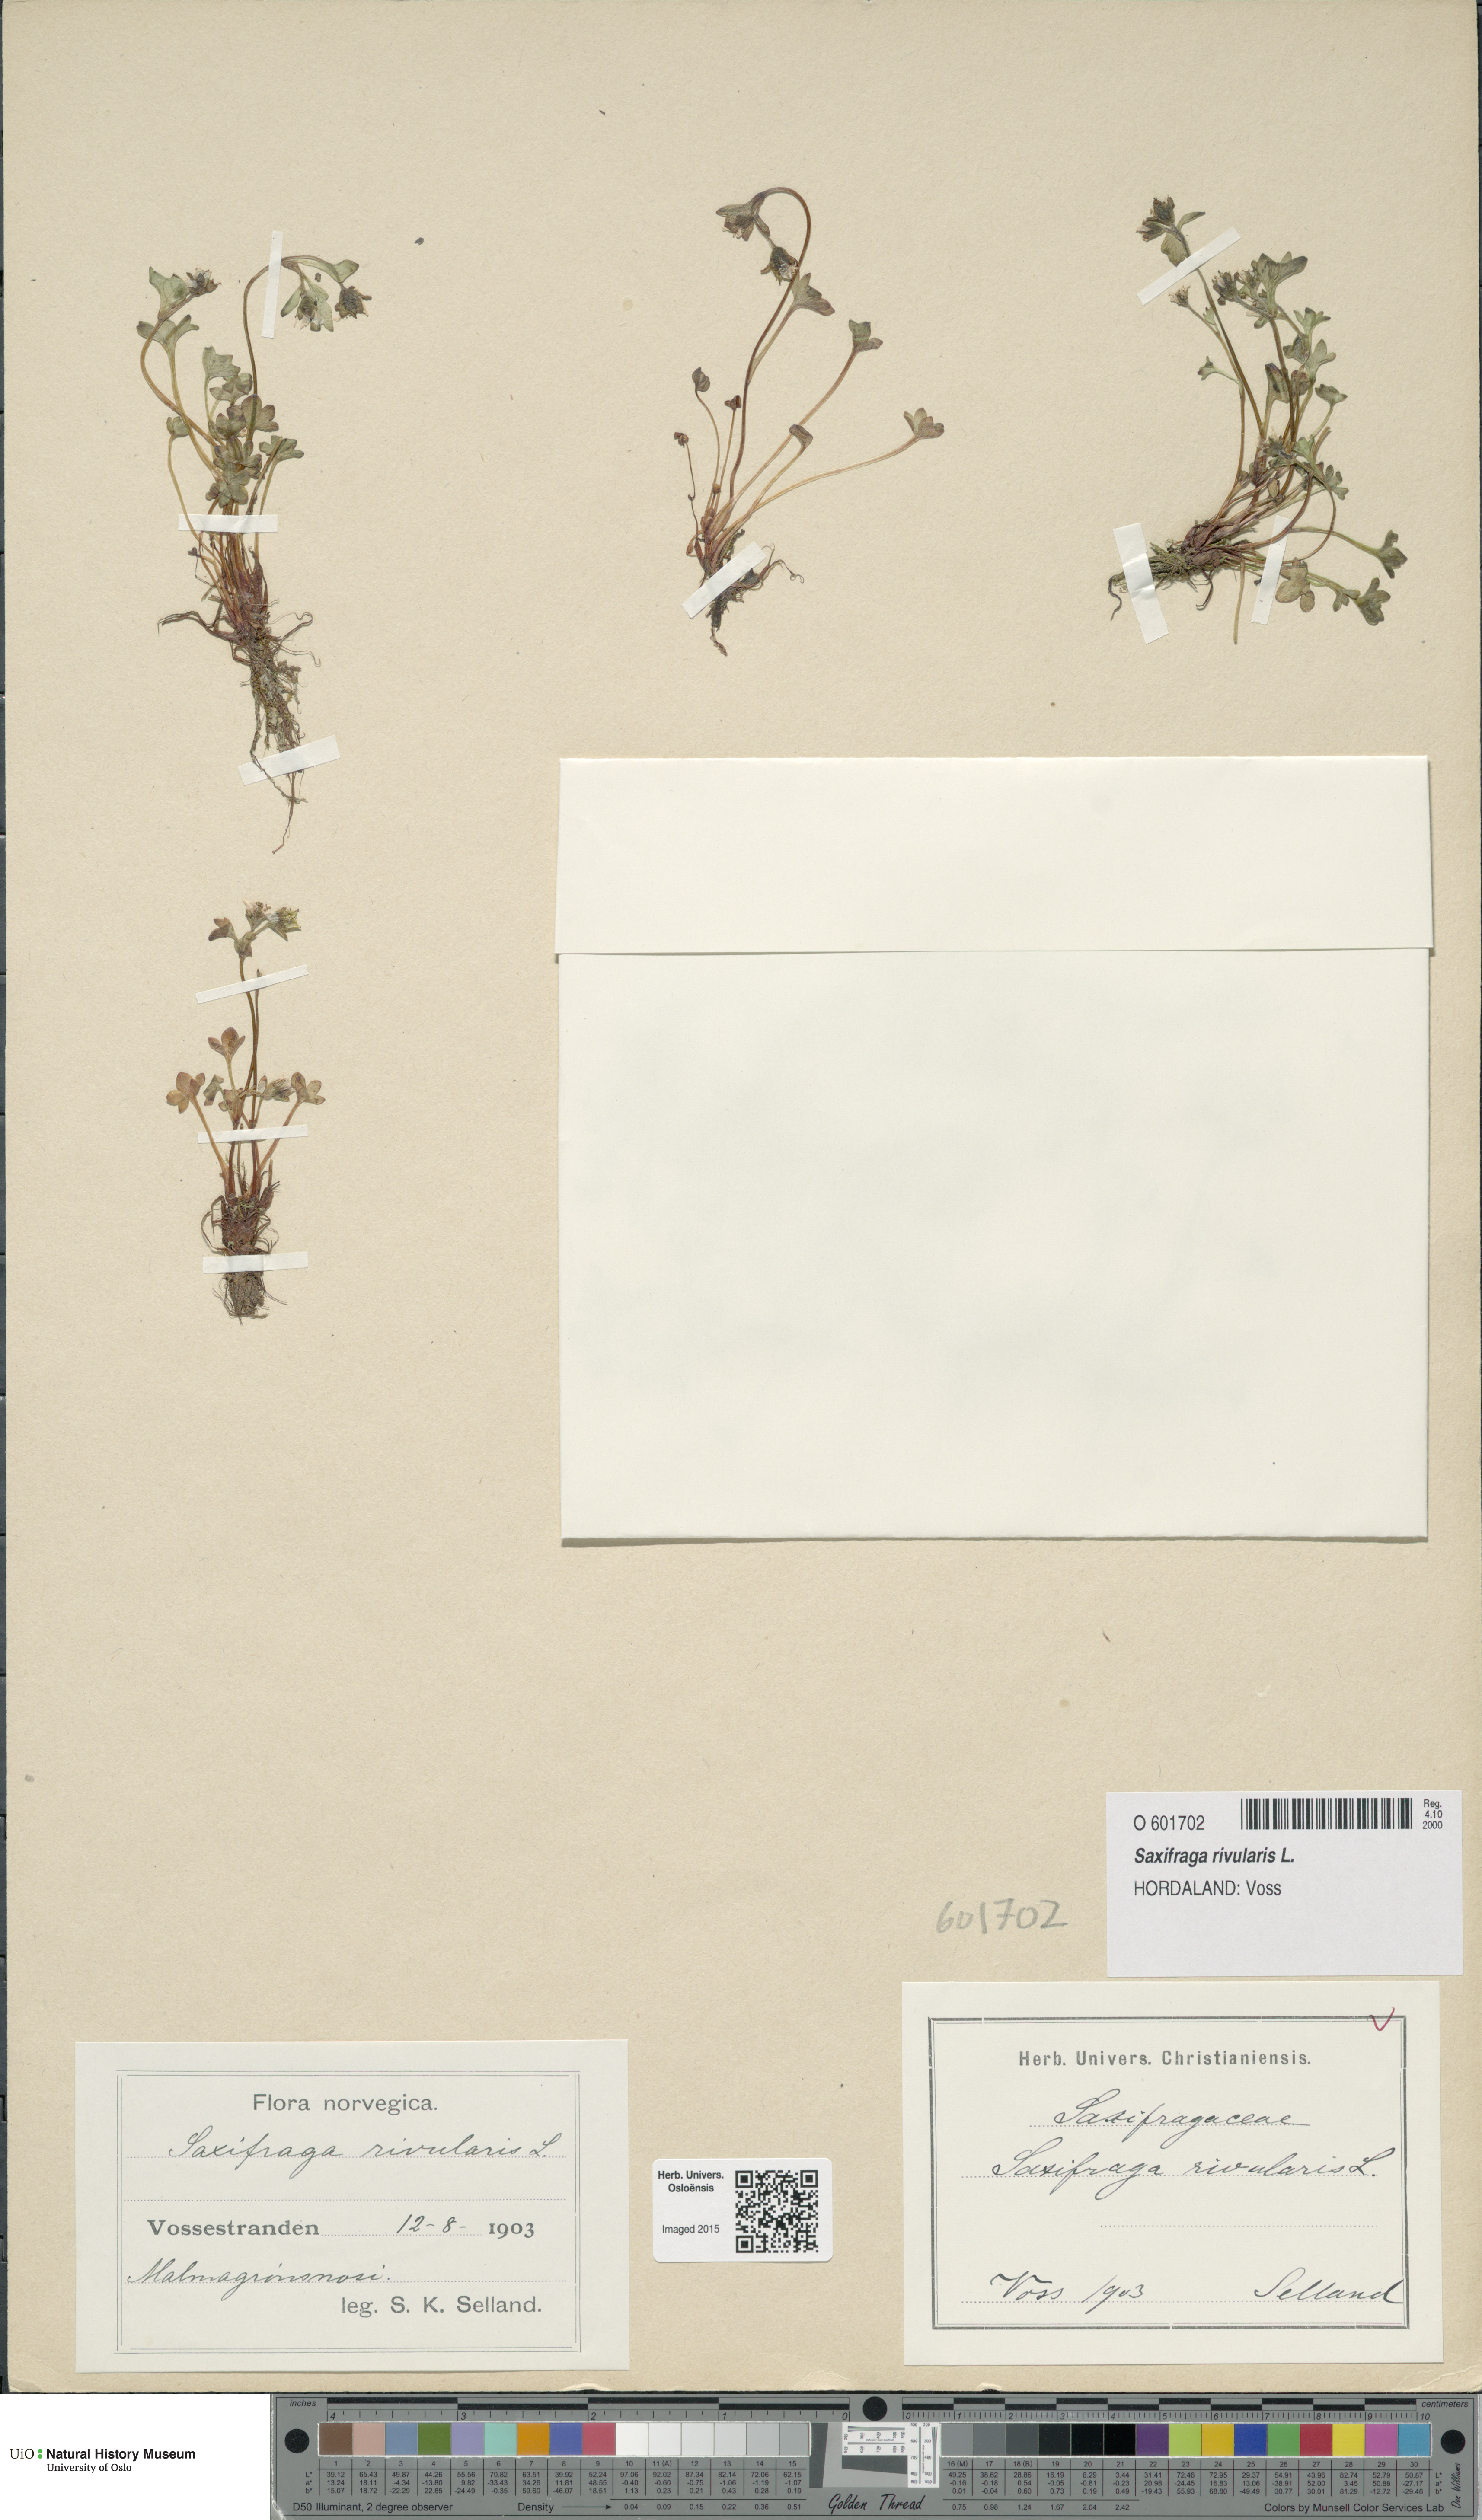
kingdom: Plantae
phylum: Tracheophyta
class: Magnoliopsida
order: Saxifragales
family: Saxifragaceae
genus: Saxifraga
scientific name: Saxifraga rivularis
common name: Highland saxifrage
